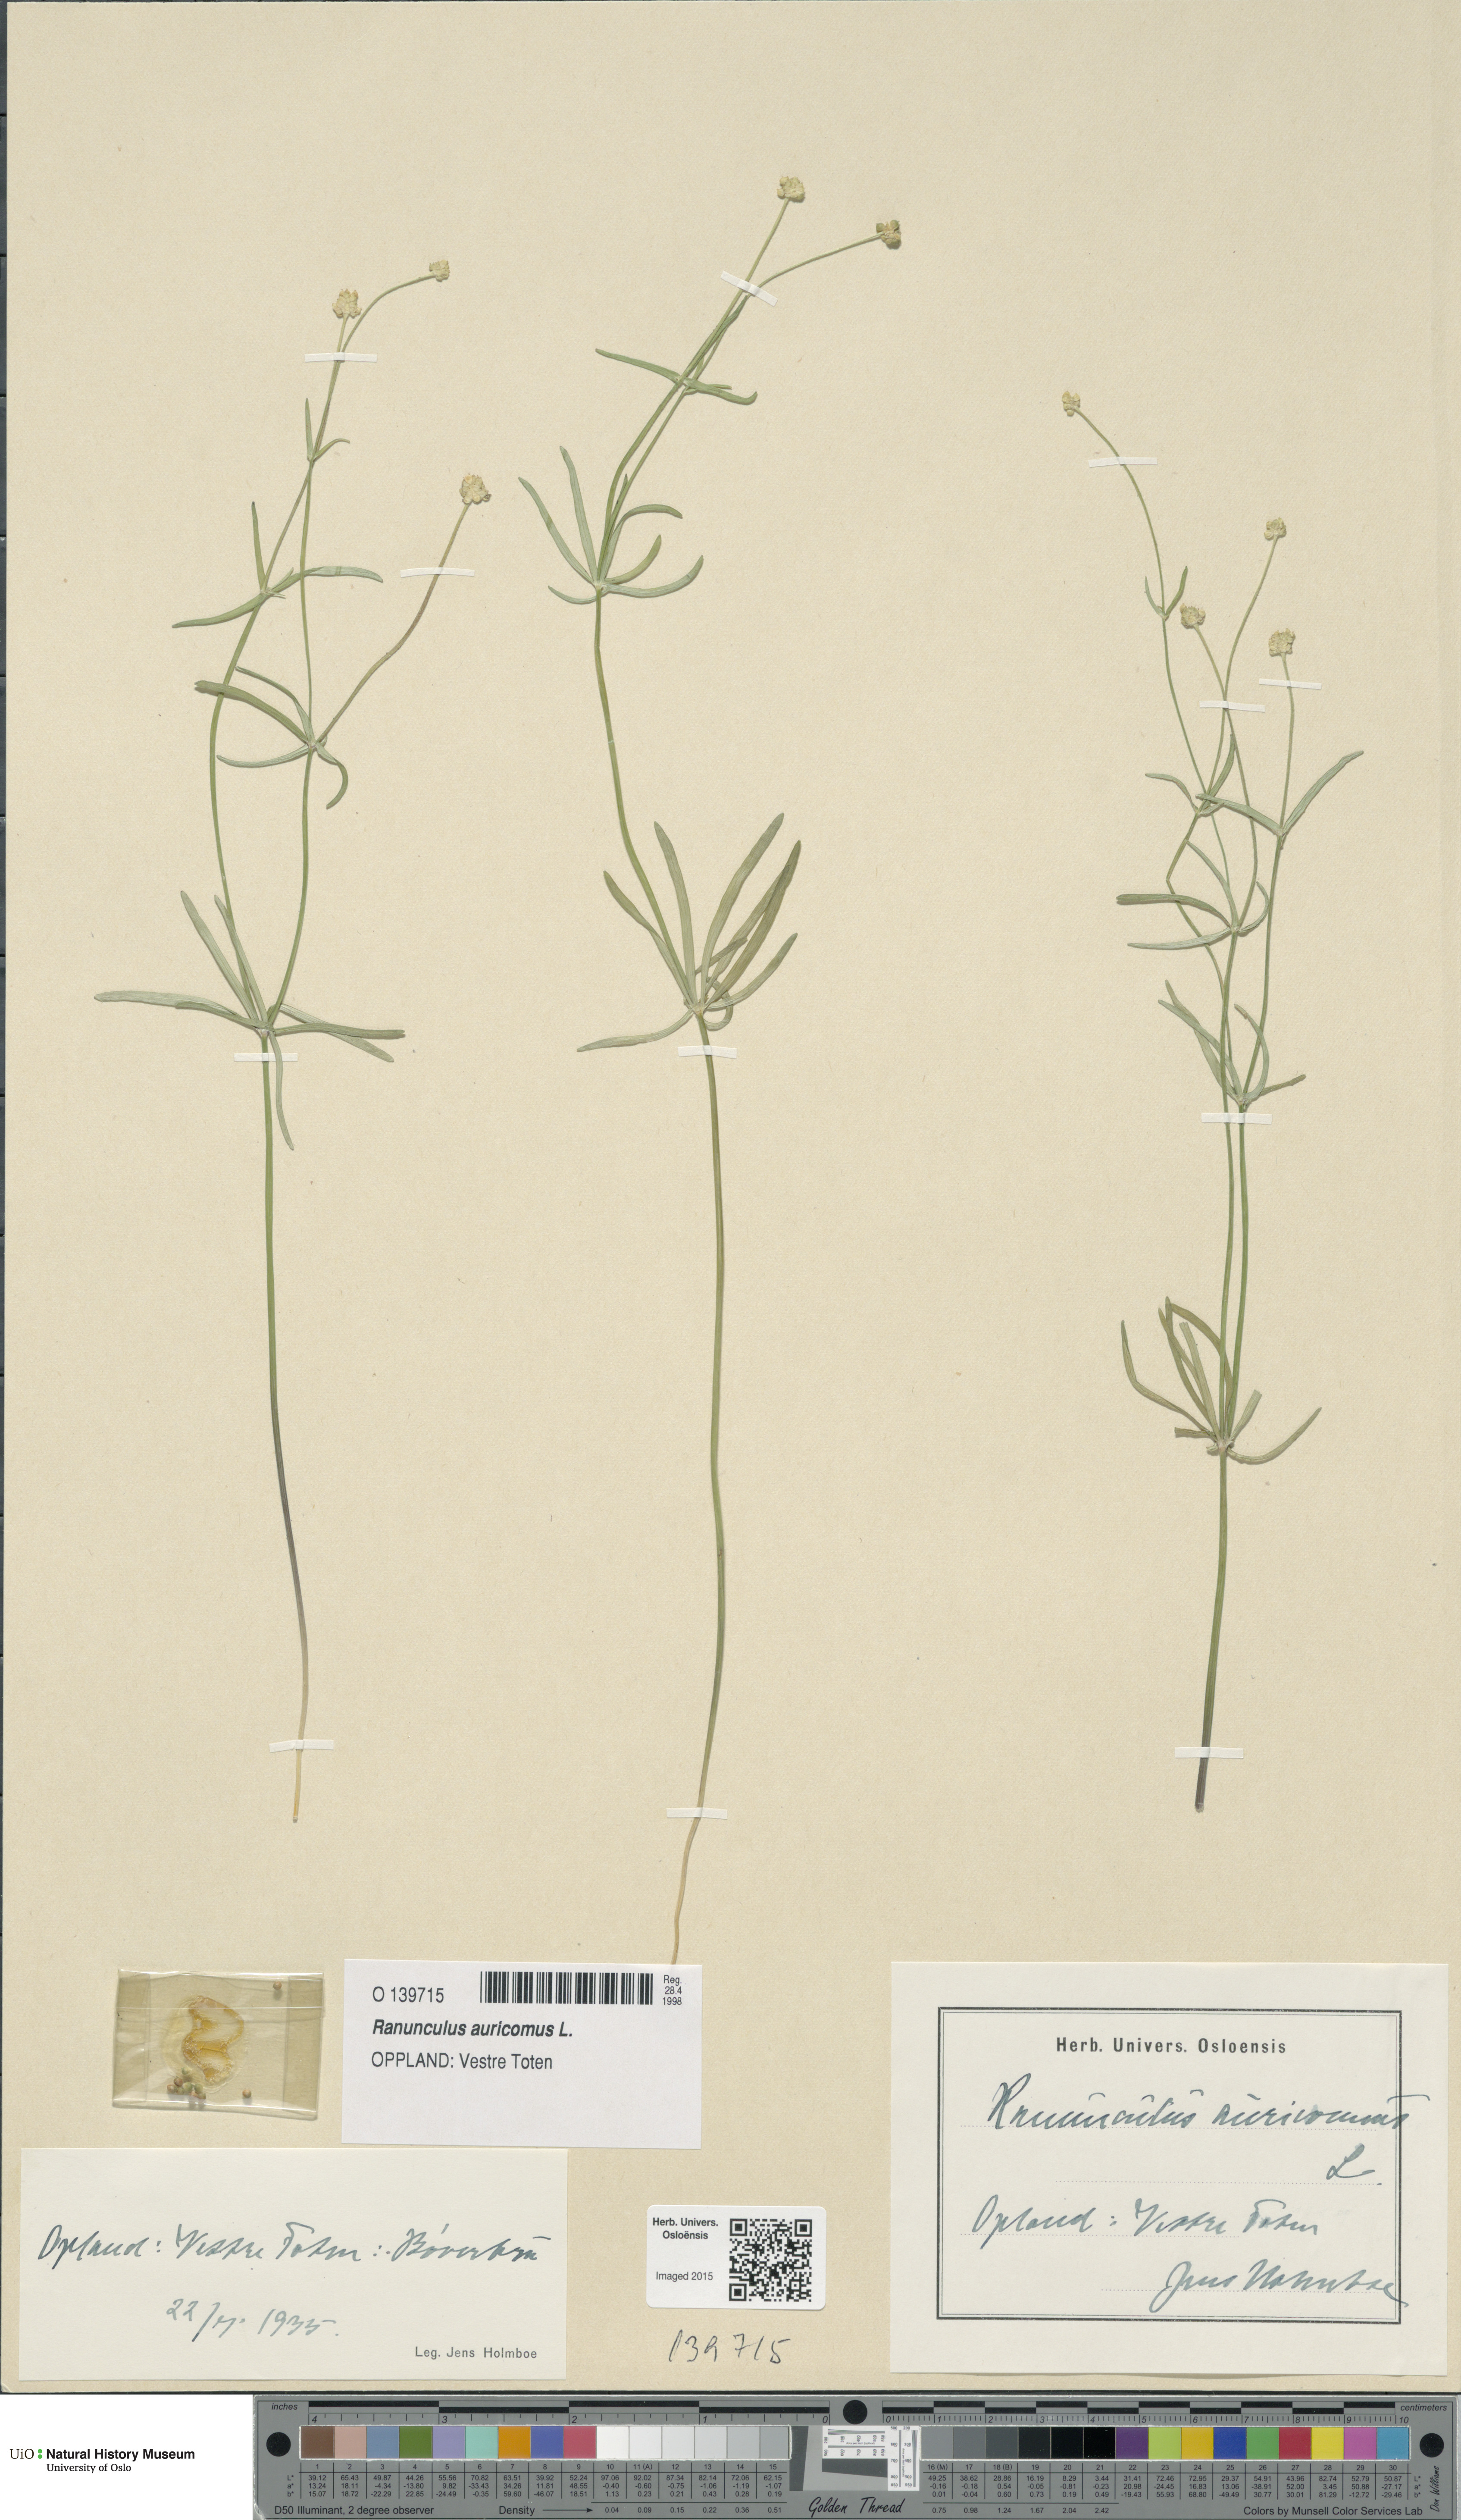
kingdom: Plantae
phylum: Tracheophyta
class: Magnoliopsida
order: Ranunculales
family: Ranunculaceae
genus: Ranunculus
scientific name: Ranunculus auricomus
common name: Goldilocks buttercup
